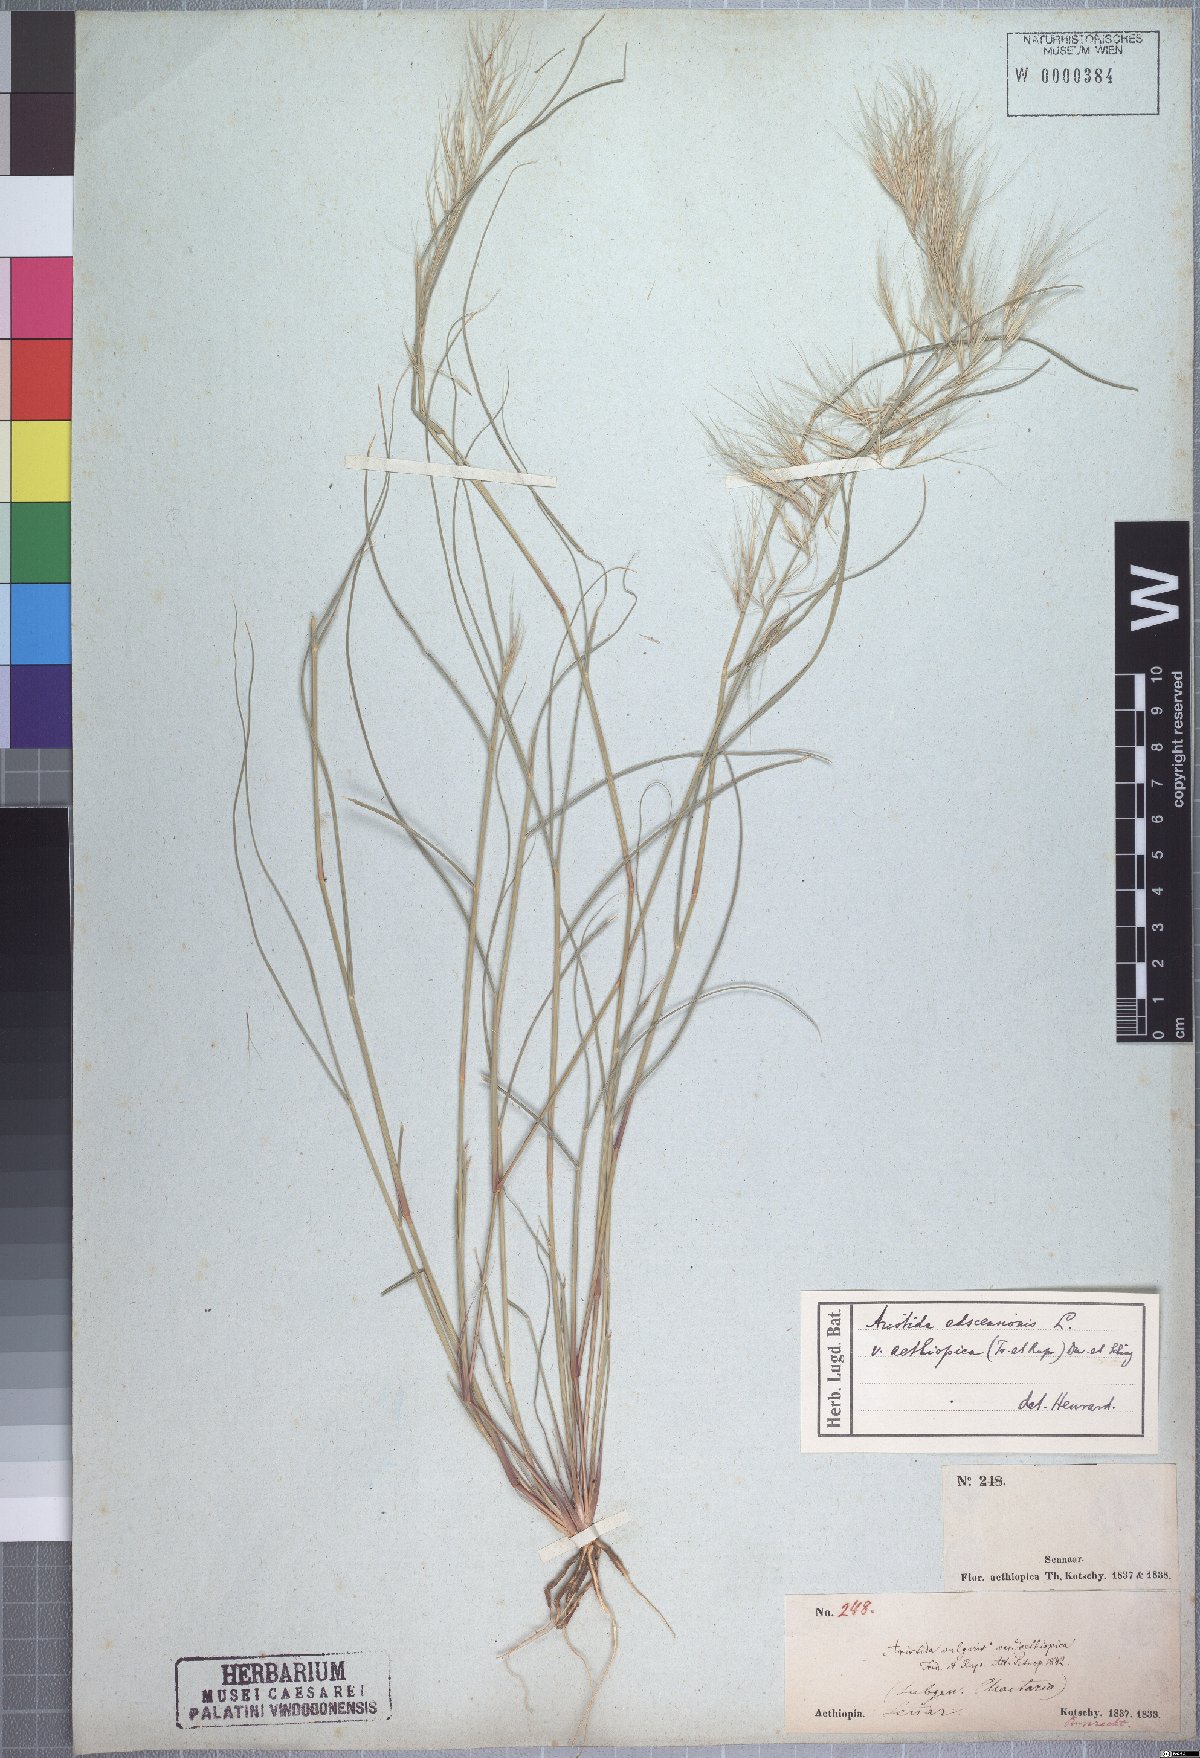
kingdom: Plantae
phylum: Tracheophyta
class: Liliopsida
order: Poales
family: Poaceae
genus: Aristida
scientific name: Aristida adscensionis
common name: Sixweeks threeawn
